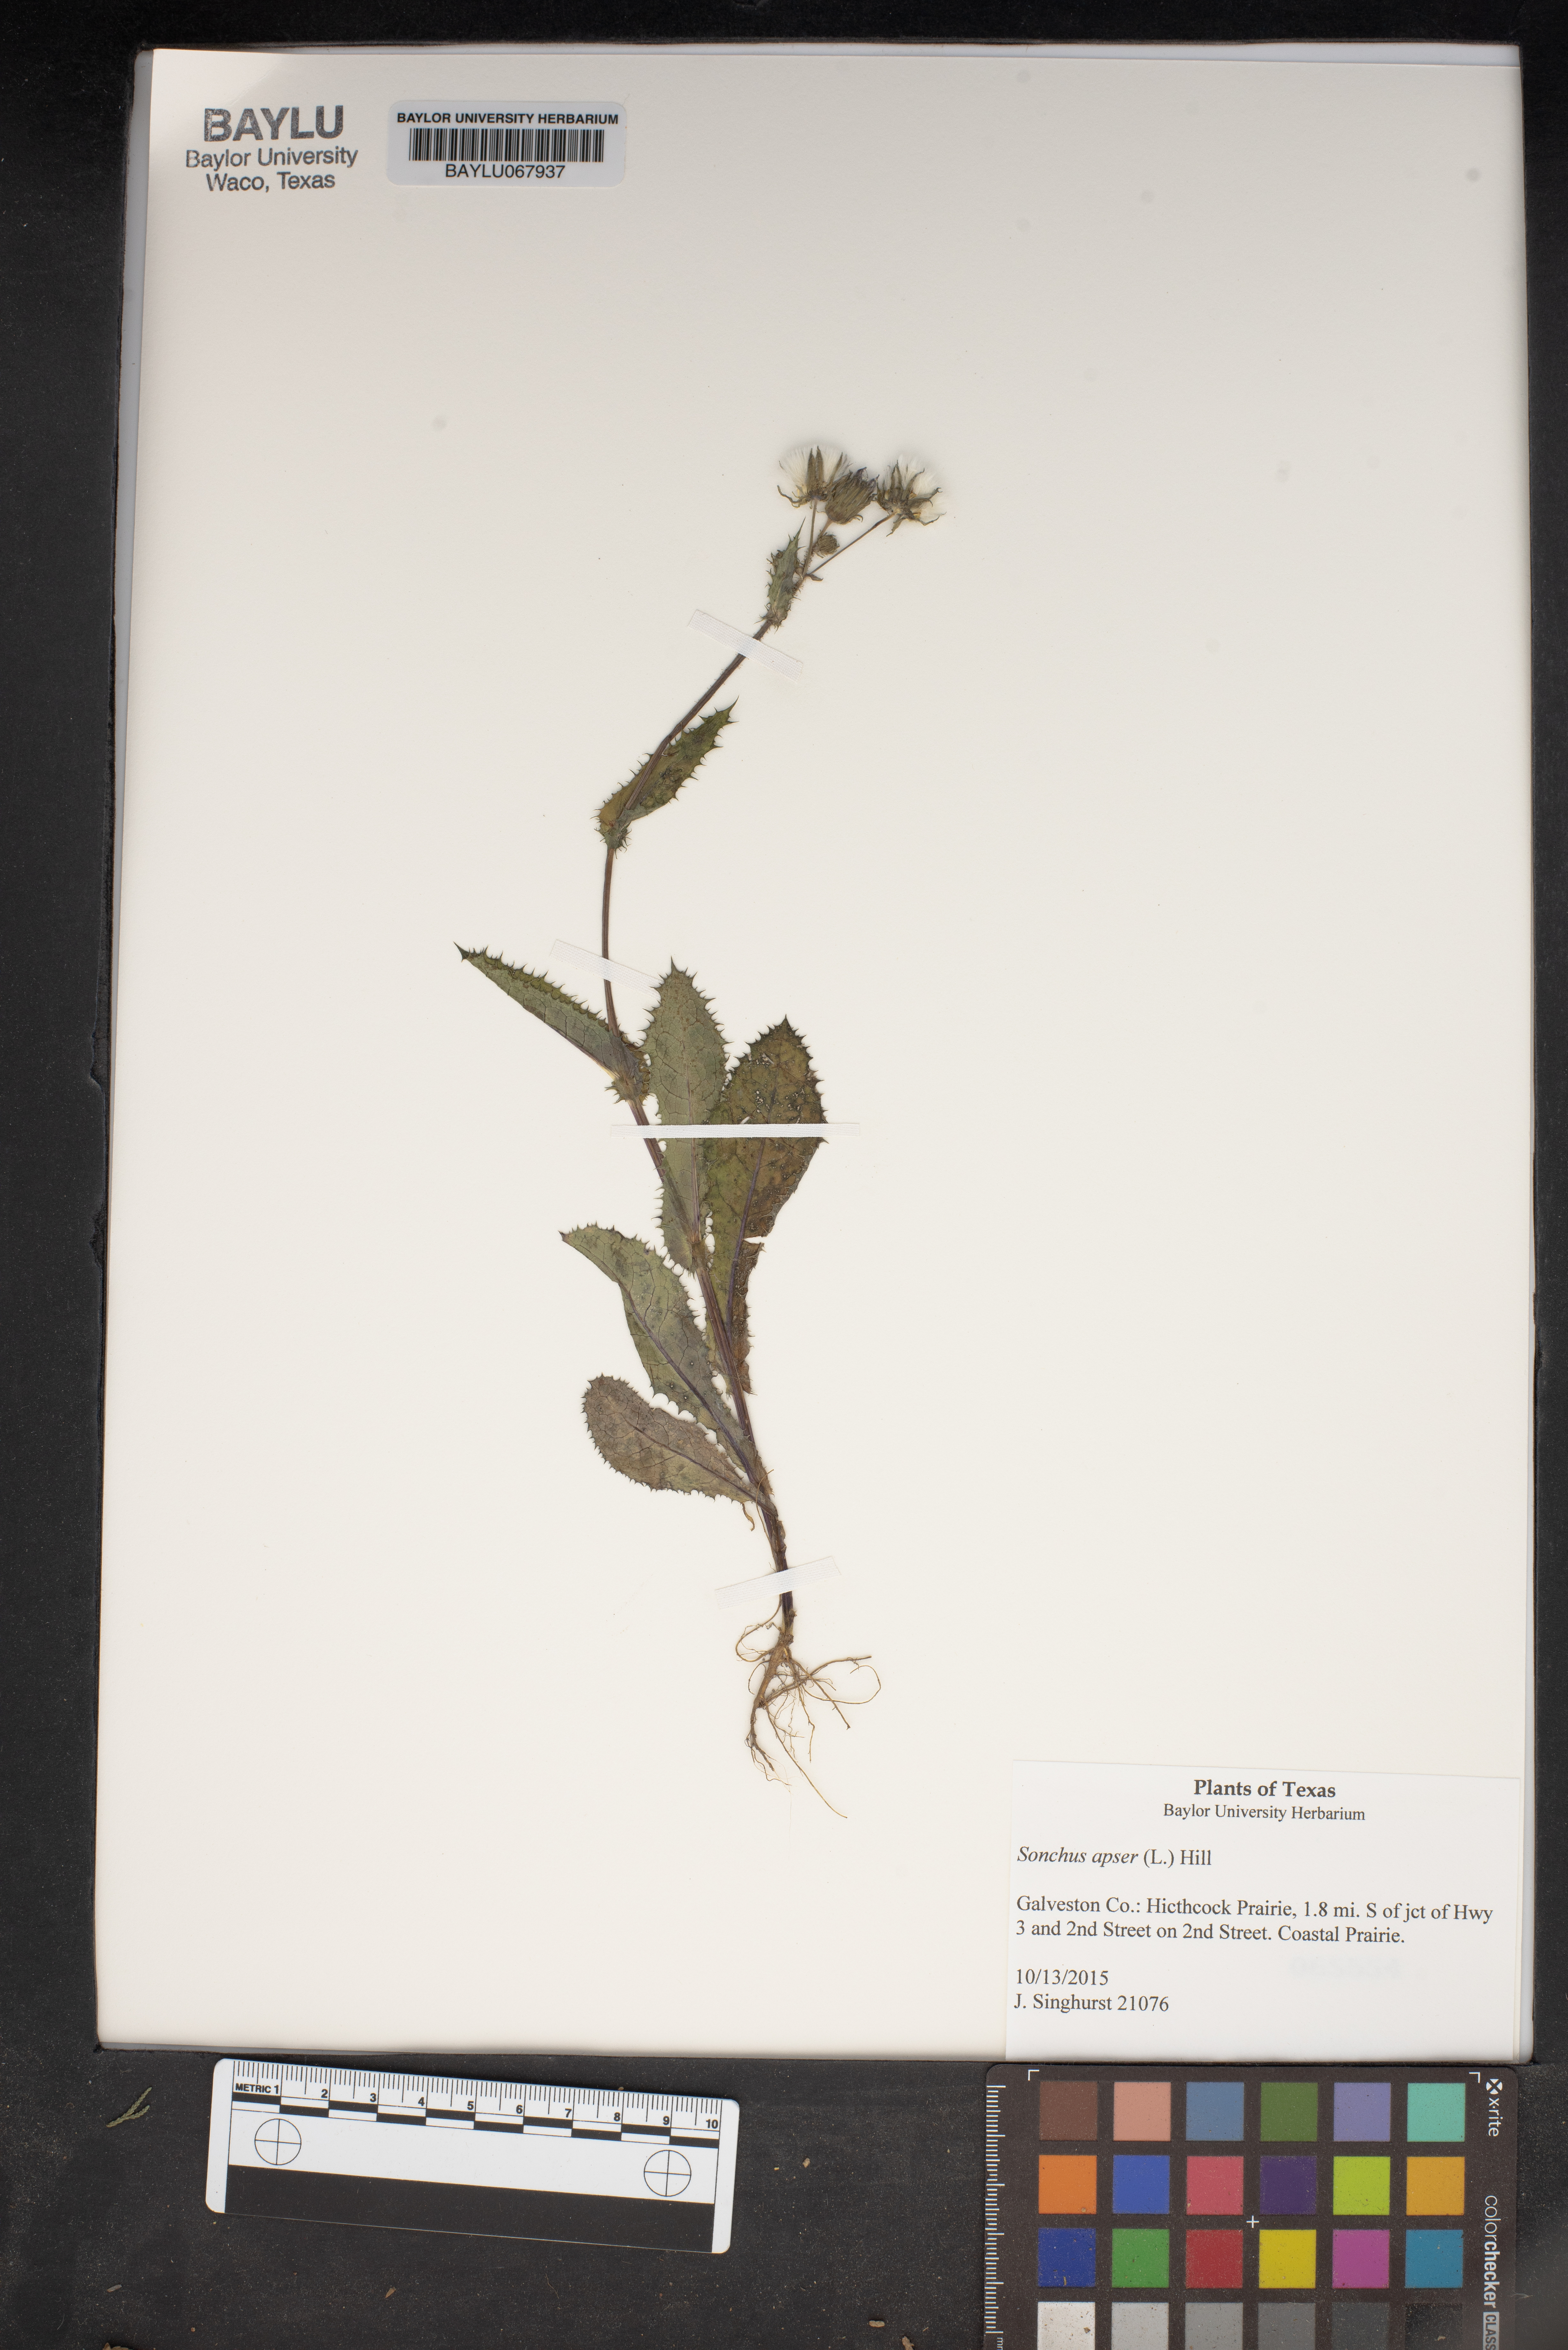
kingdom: Plantae
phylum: Tracheophyta
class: Magnoliopsida
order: Asterales
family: Asteraceae
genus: Sonchus
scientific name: Sonchus asper
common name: Prickly sow-thistle
